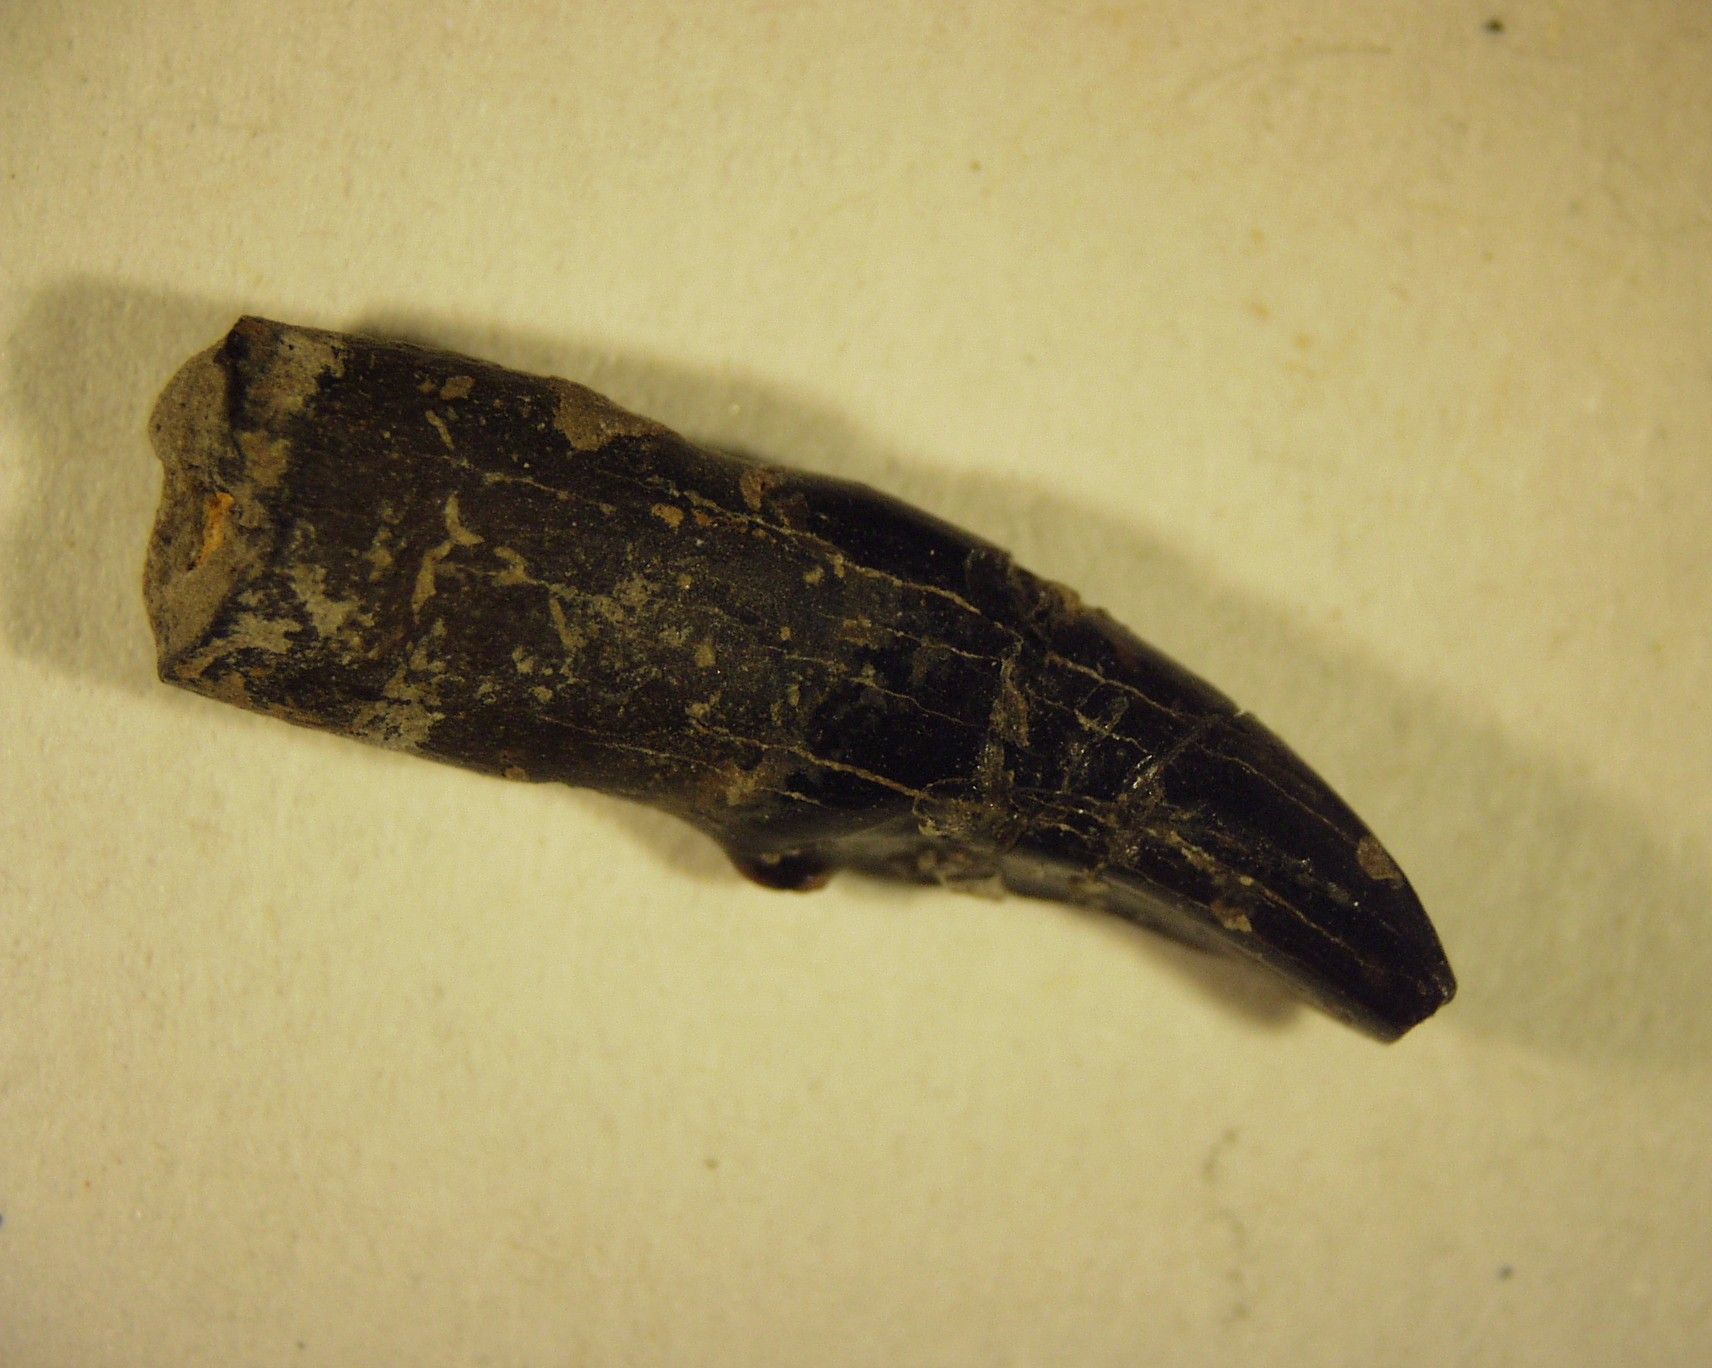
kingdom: Animalia
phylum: Chordata
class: Mammalia
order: Primates
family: Plesiadapidae
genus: Plesiadapis
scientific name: Plesiadapis fodinatus
